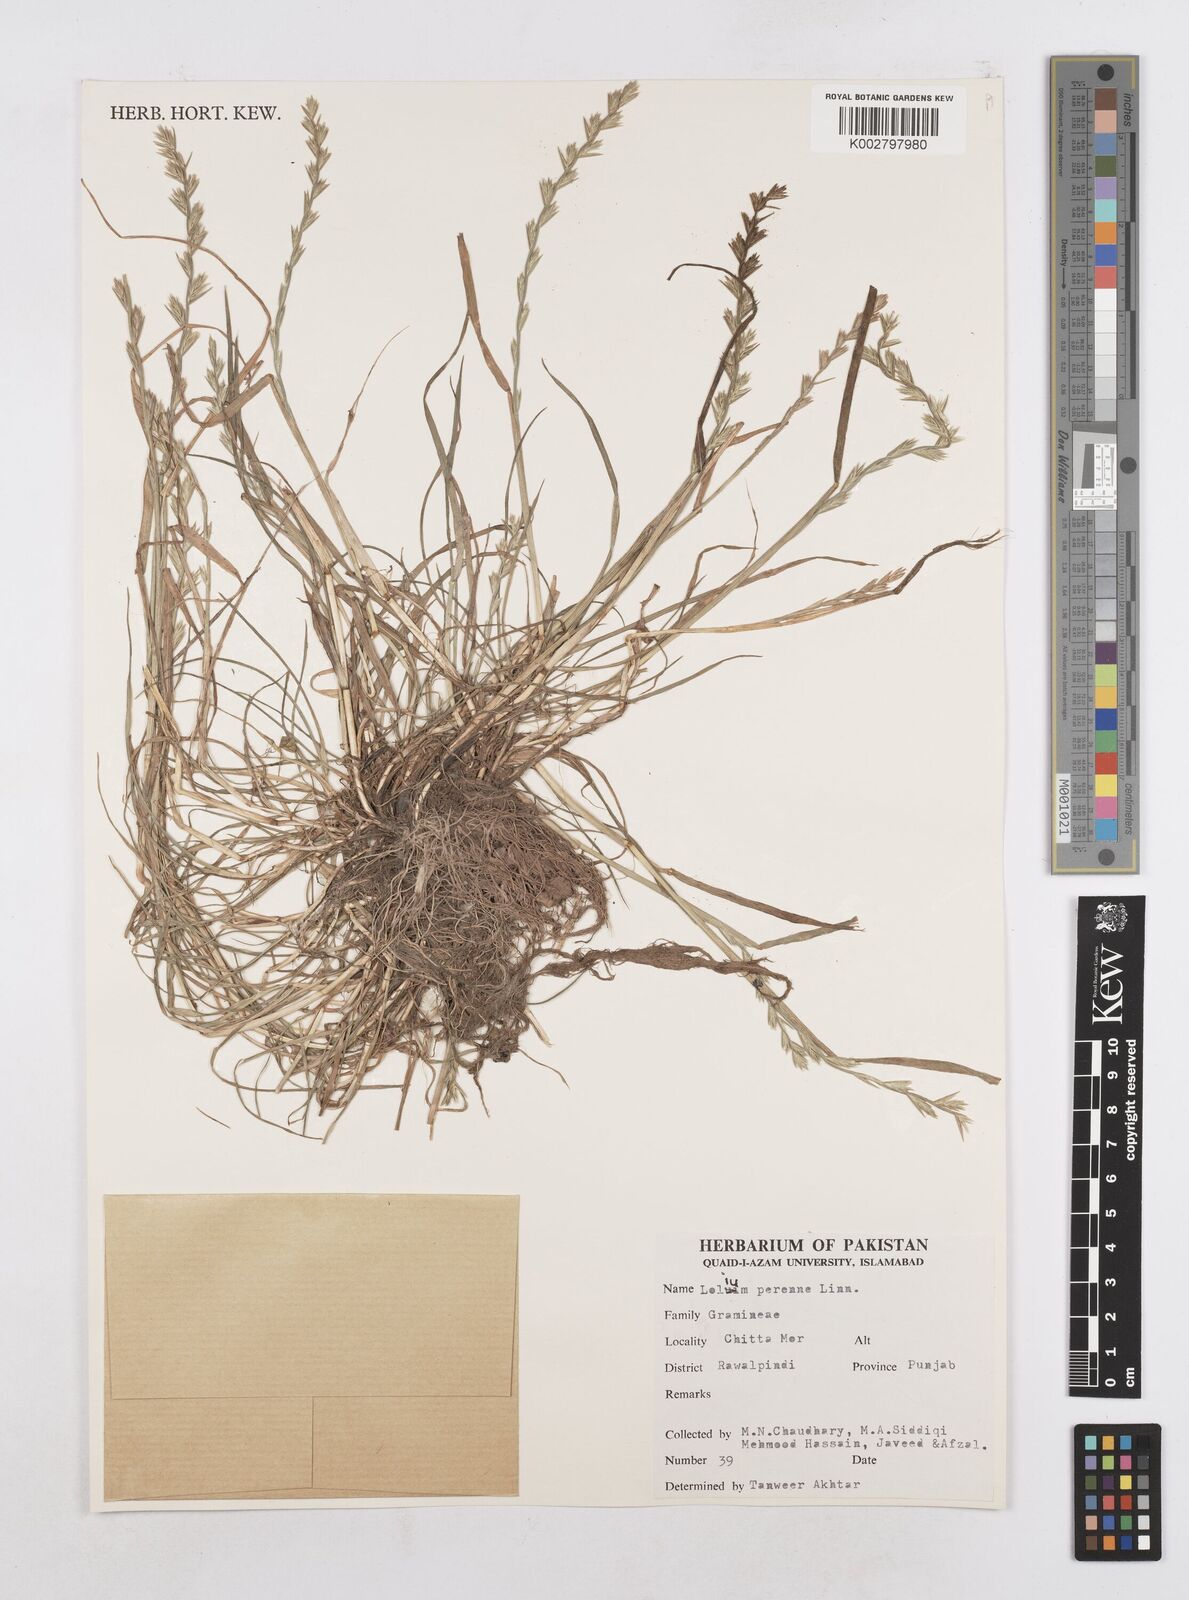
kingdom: Plantae
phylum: Tracheophyta
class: Liliopsida
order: Poales
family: Poaceae
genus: Lolium
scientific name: Lolium perenne
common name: Perennial ryegrass
